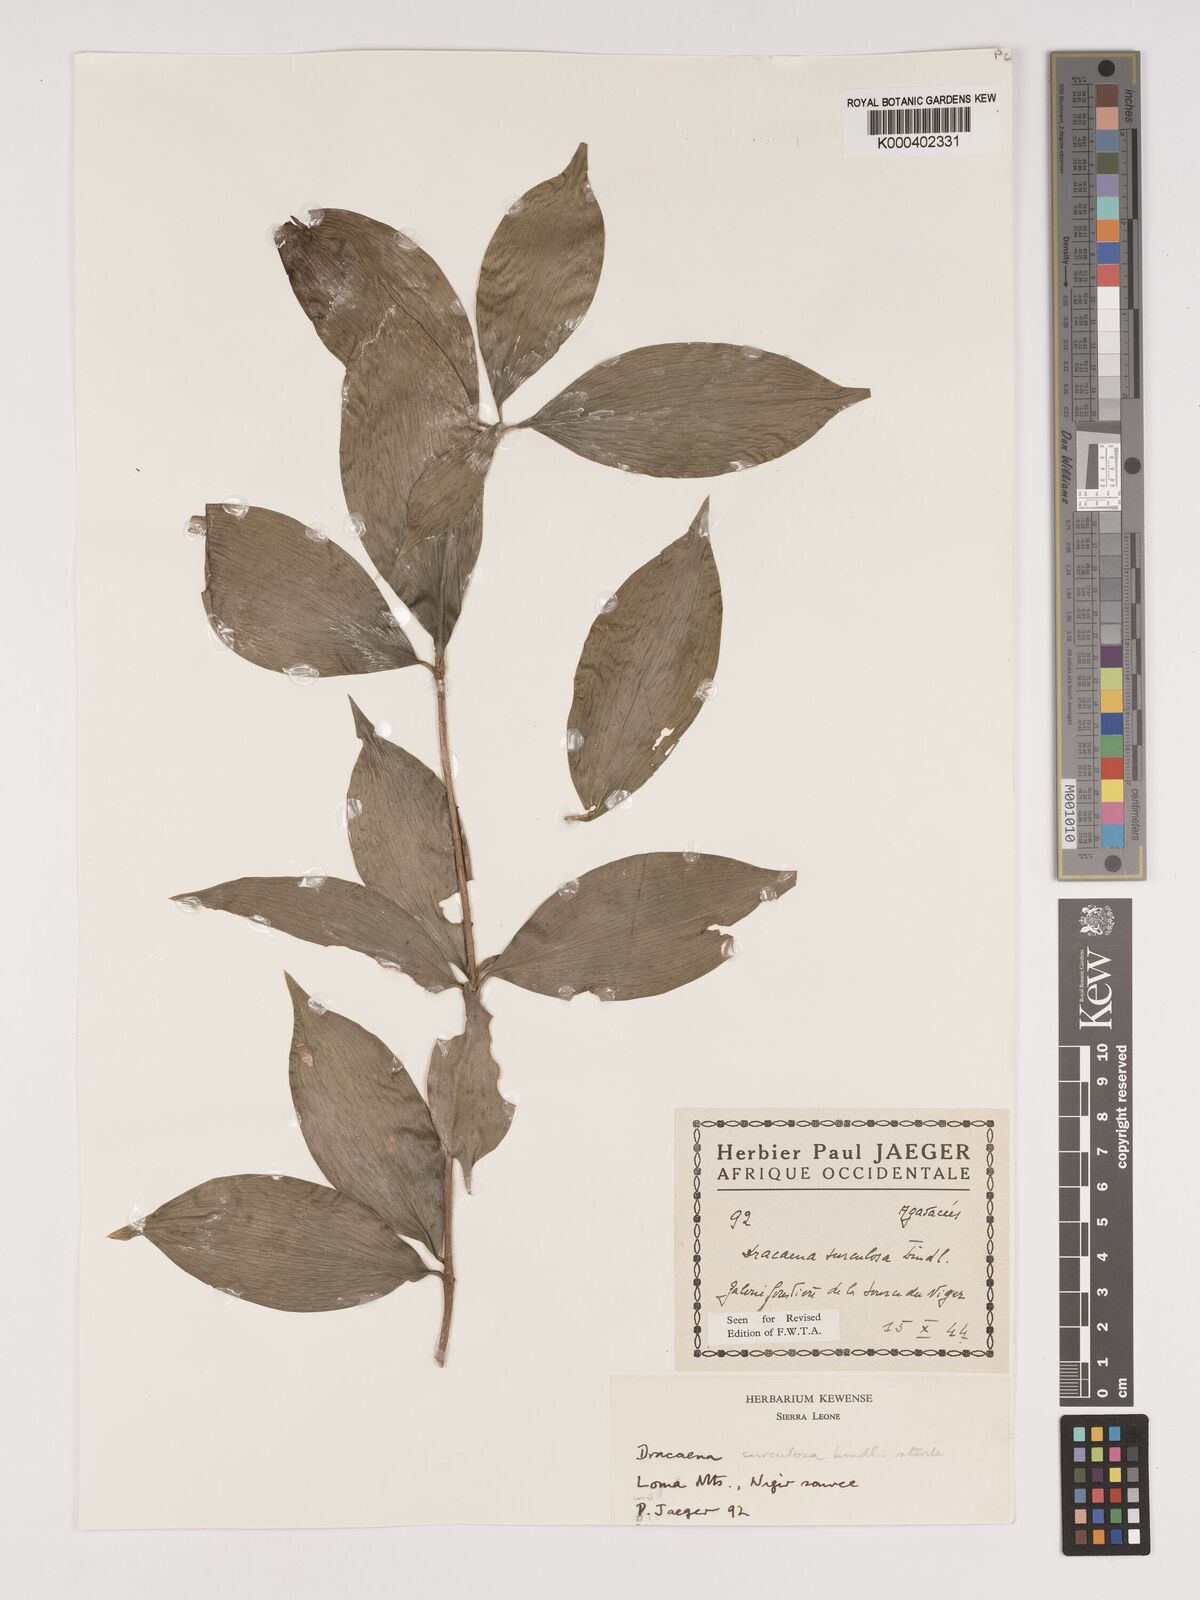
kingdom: Plantae
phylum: Tracheophyta
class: Liliopsida
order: Asparagales
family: Asparagaceae
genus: Dracaena
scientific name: Dracaena surculosa
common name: Spotted dracaena
